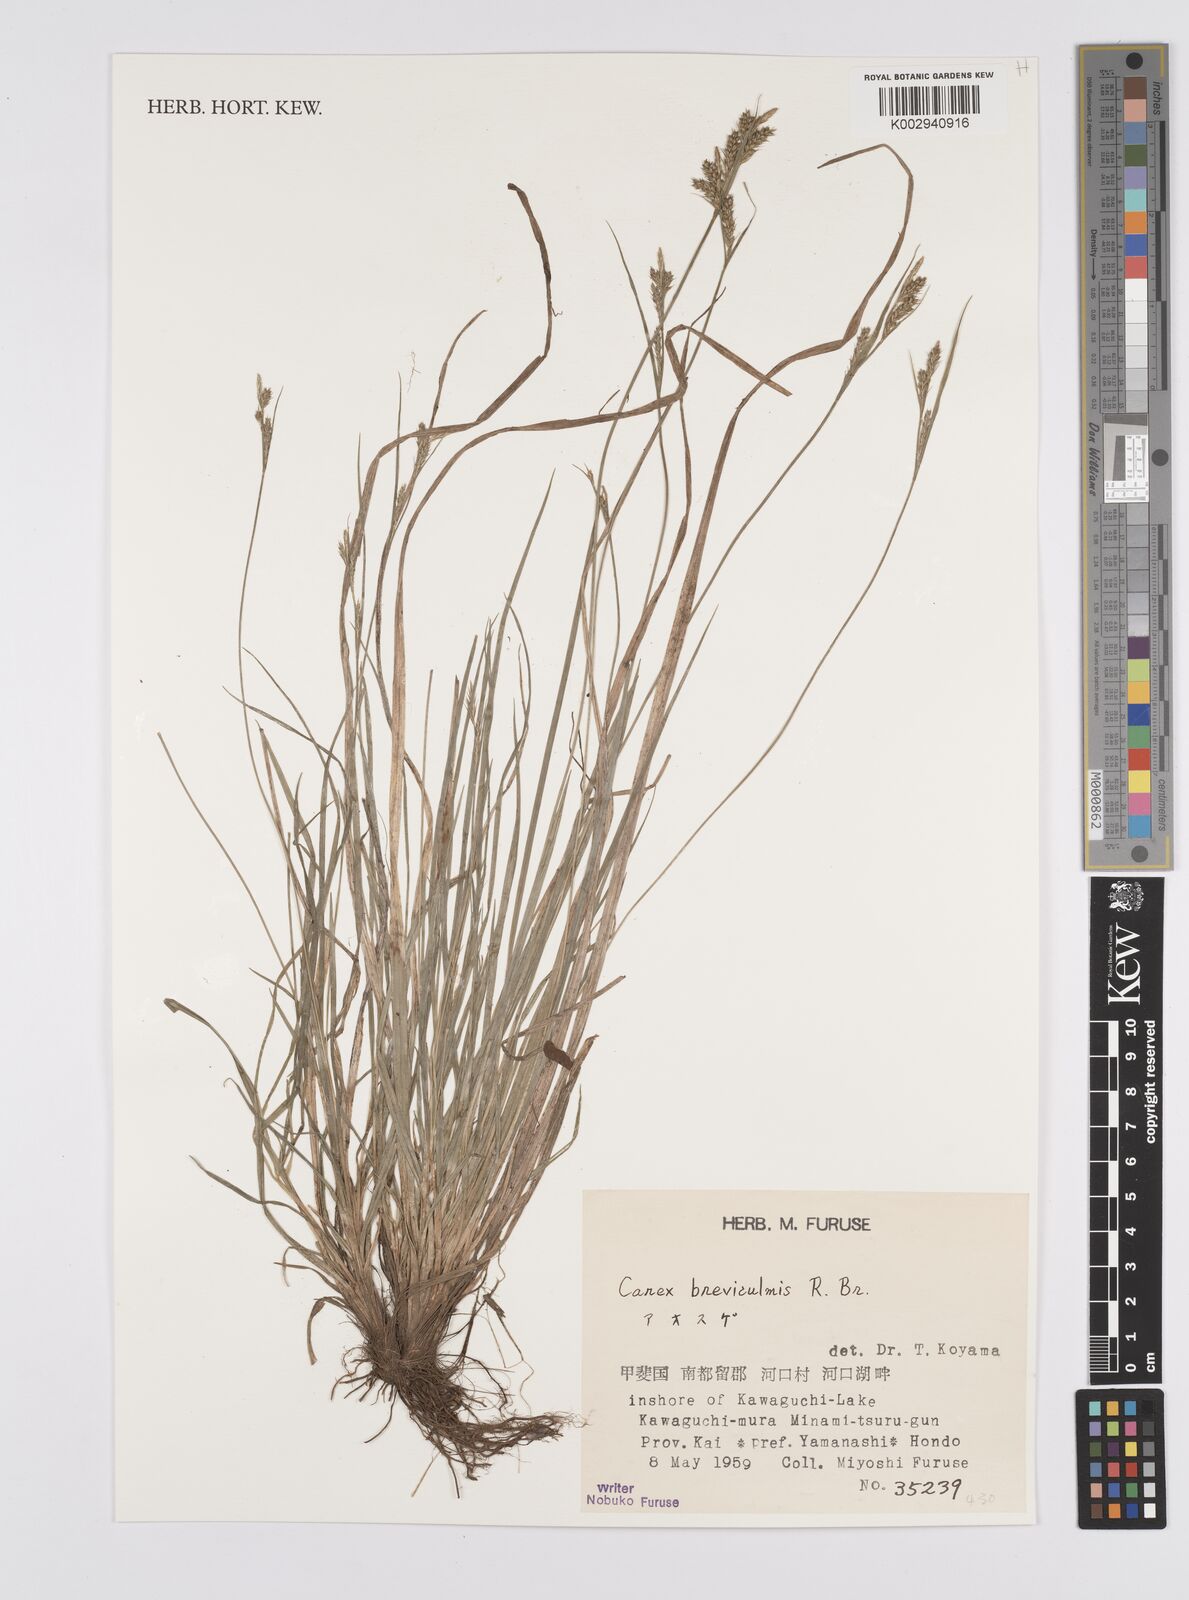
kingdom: Plantae
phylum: Tracheophyta
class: Liliopsida
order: Poales
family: Cyperaceae
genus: Carex
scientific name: Carex breviculmis
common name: Asian shortstem sedge
